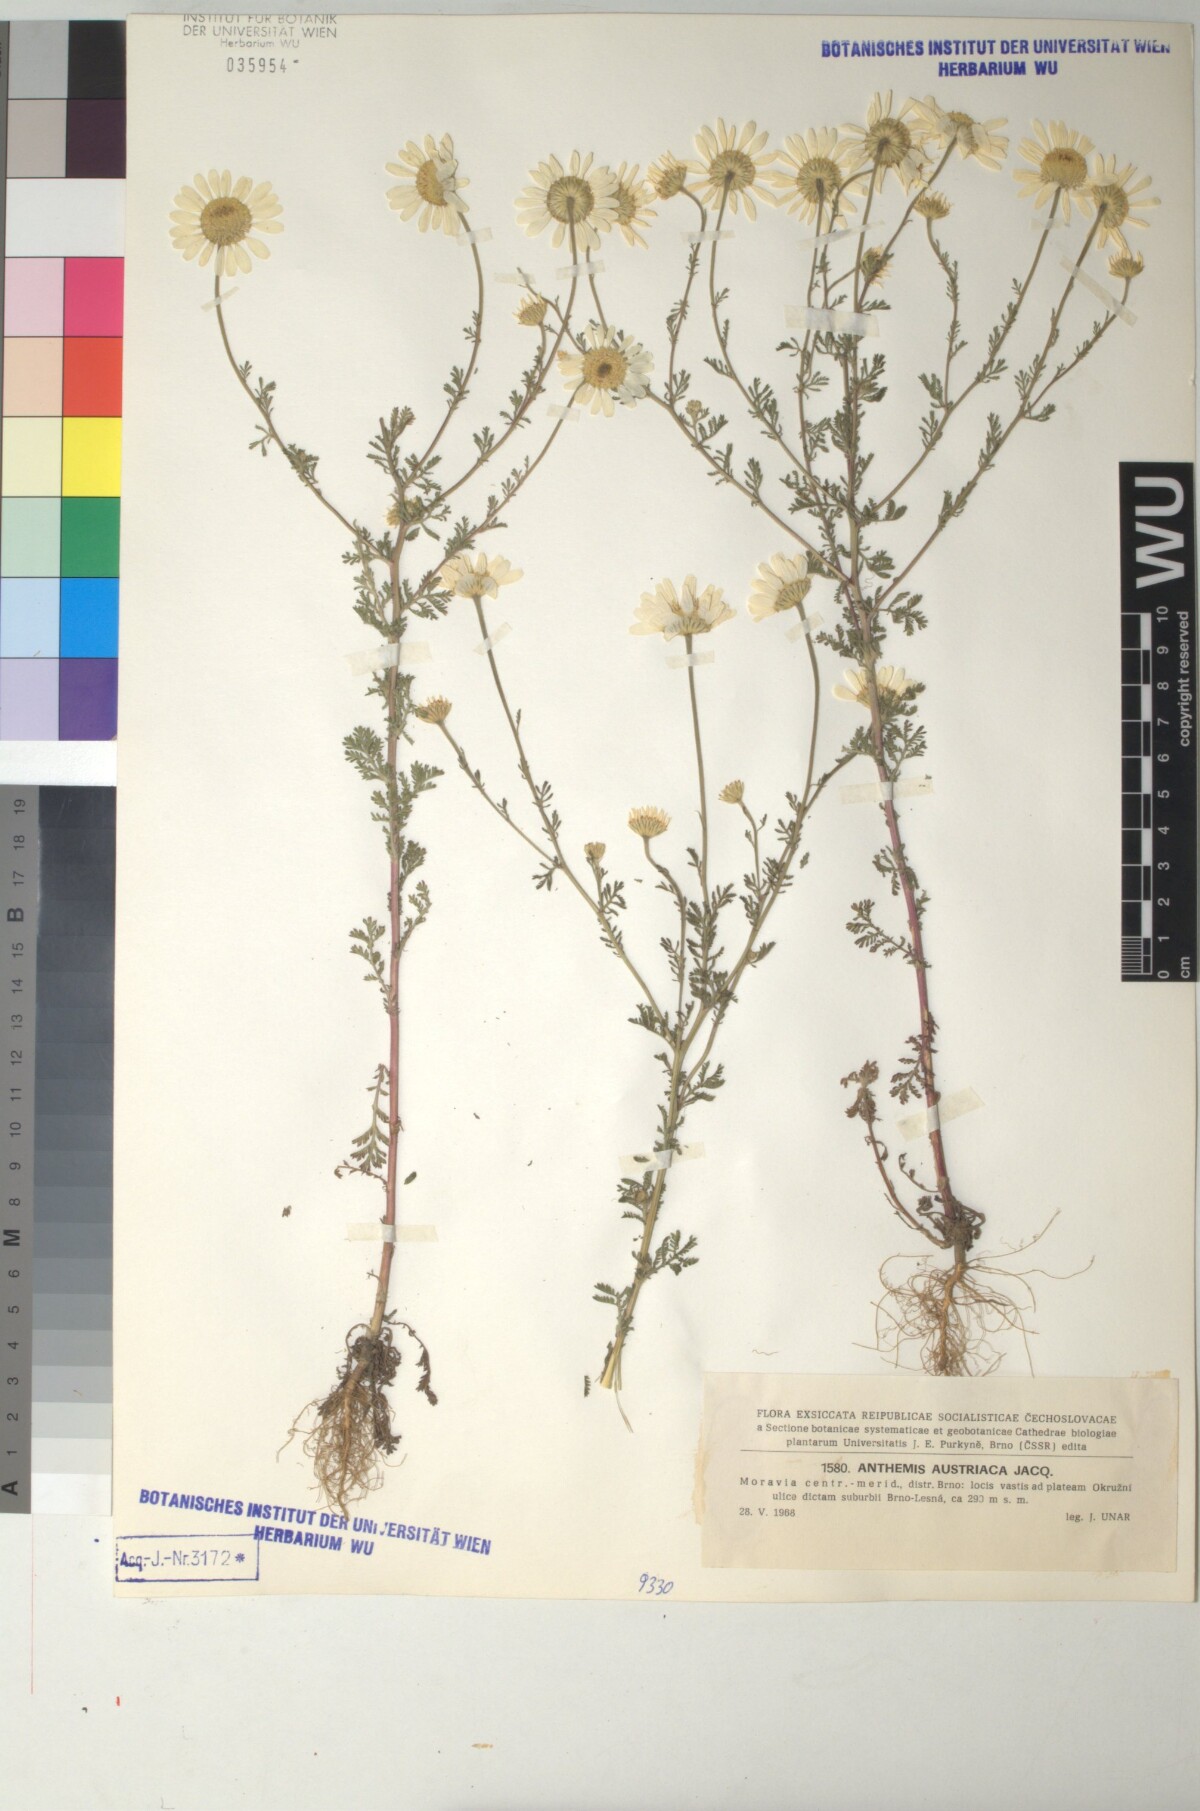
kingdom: Plantae
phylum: Tracheophyta
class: Magnoliopsida
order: Asterales
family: Asteraceae
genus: Cota
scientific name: Cota austriaca
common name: Austrian chamomile
